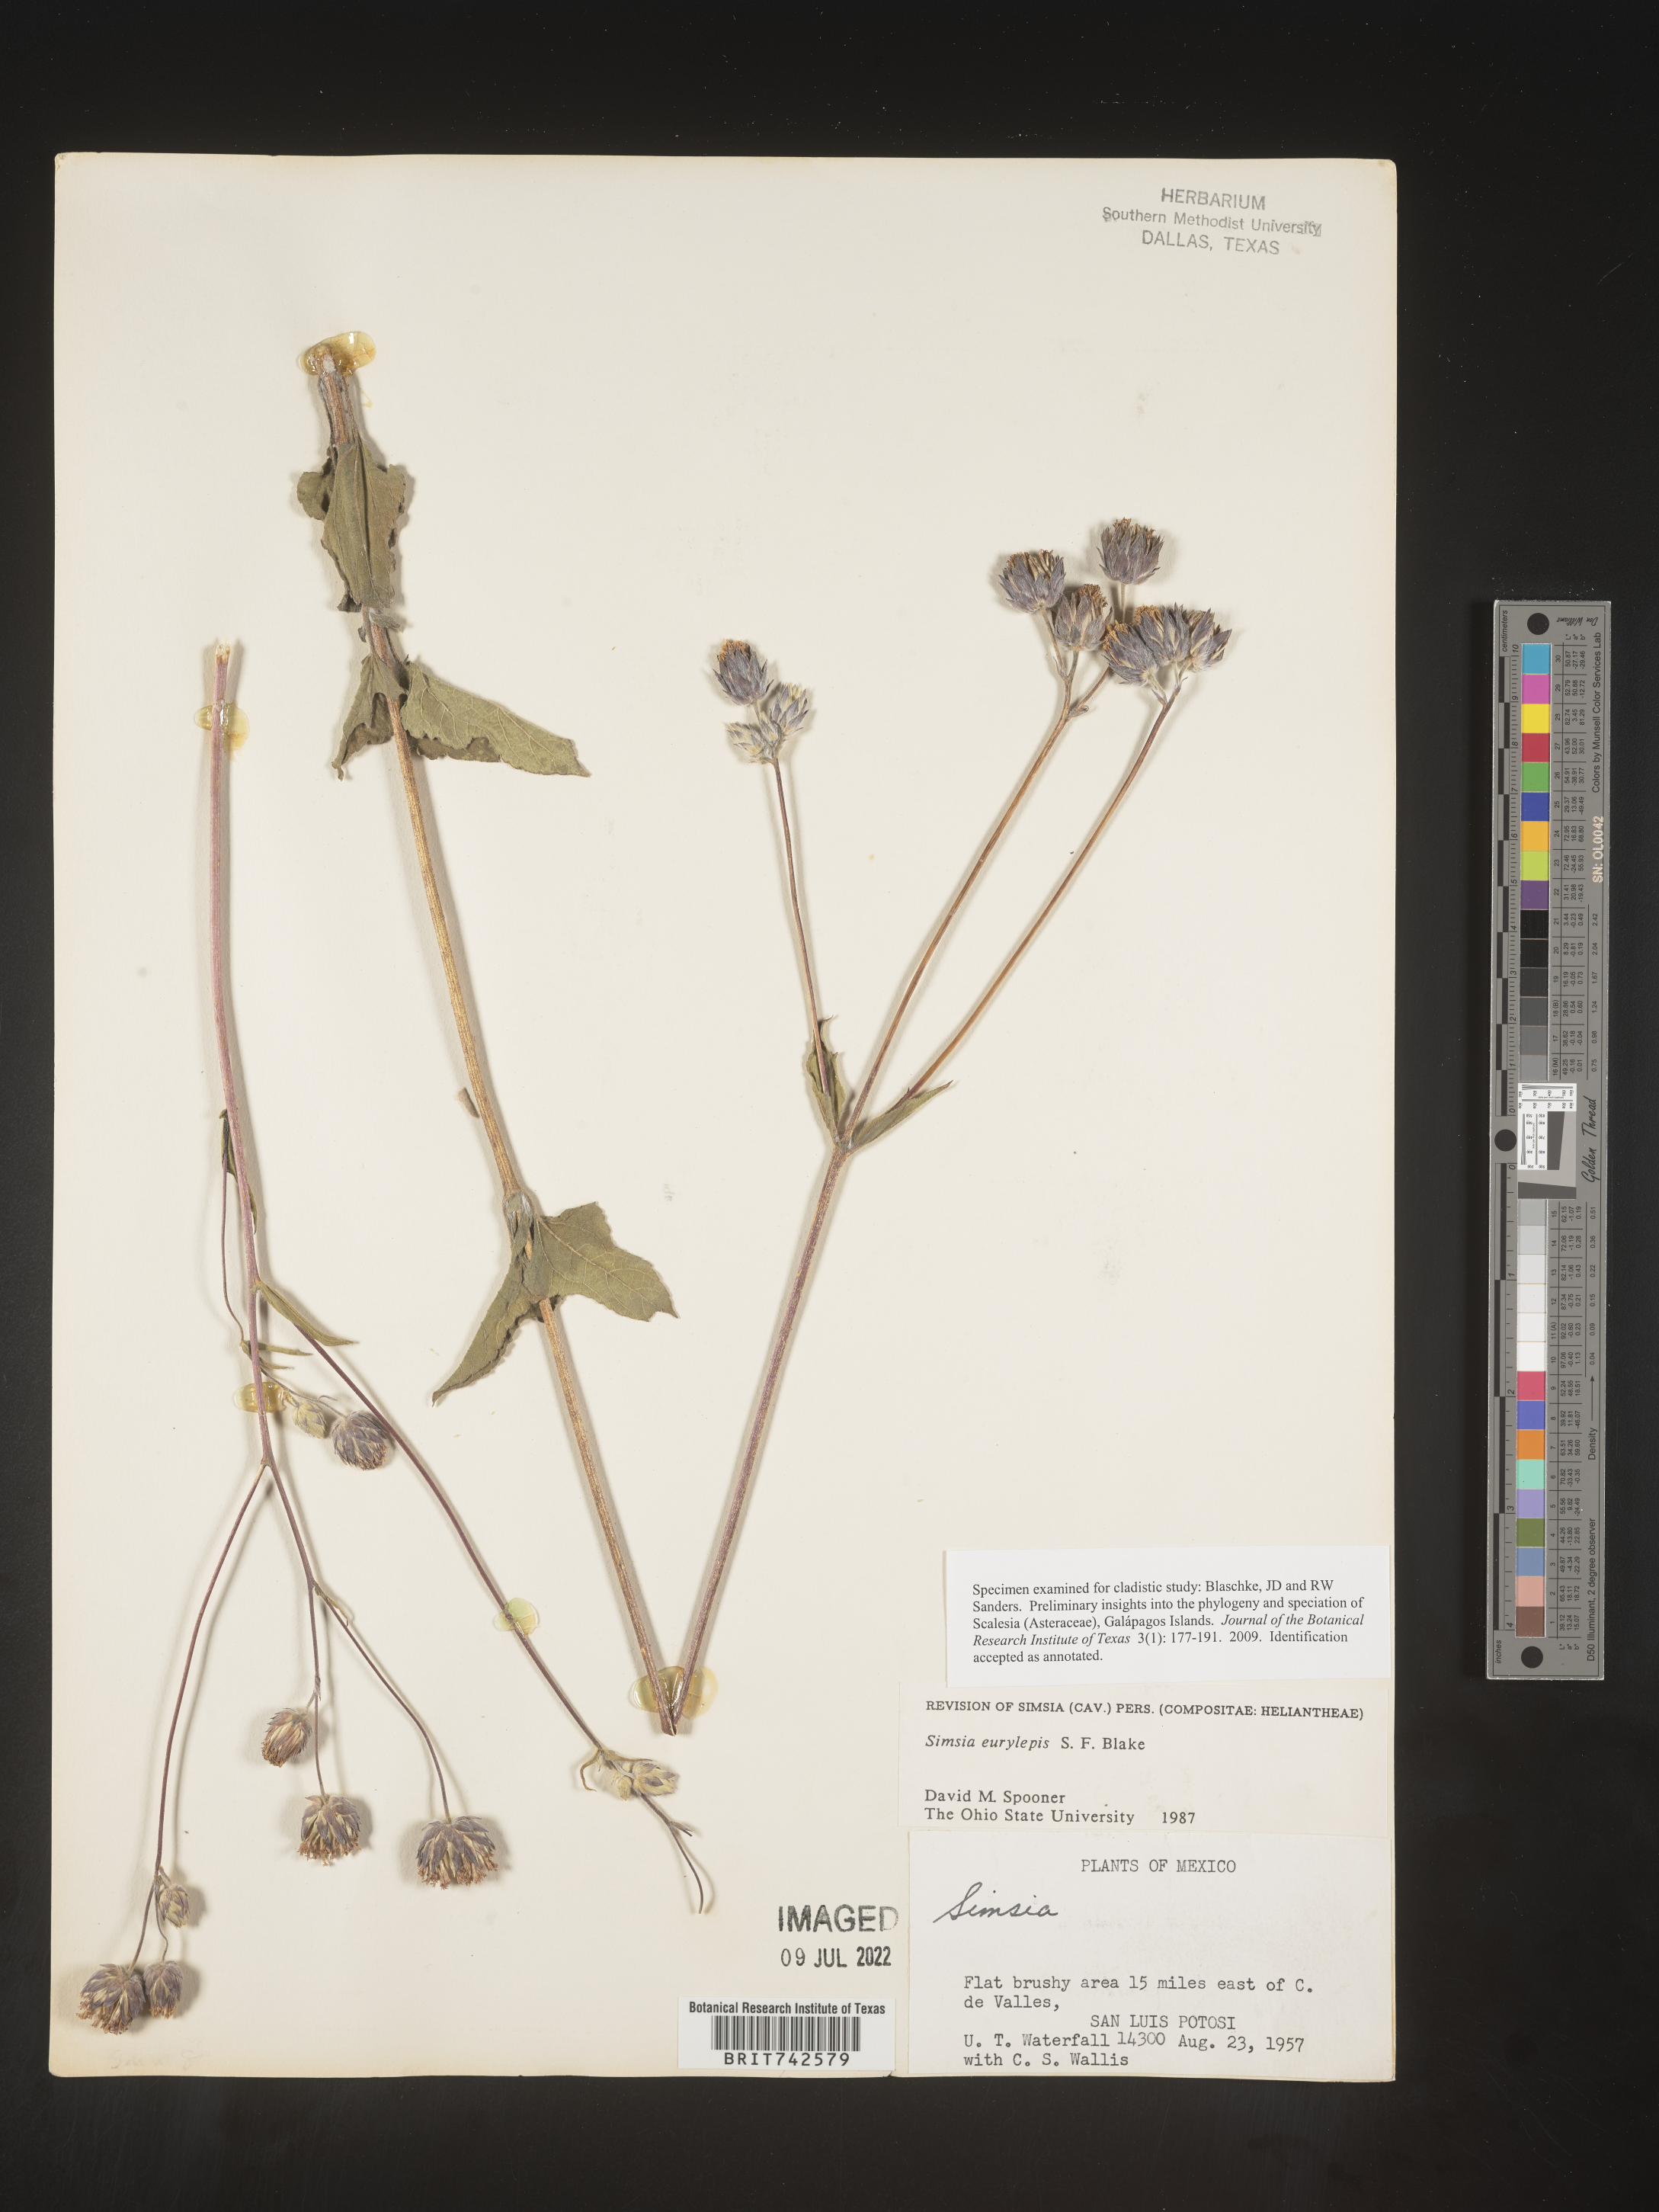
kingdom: Plantae
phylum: Tracheophyta
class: Magnoliopsida
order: Asterales
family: Asteraceae
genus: Simsia
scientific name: Simsia
